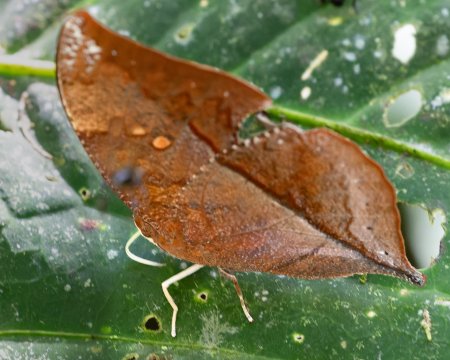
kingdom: Animalia
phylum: Arthropoda
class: Insecta
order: Lepidoptera
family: Nymphalidae
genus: Zaretis
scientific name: Zaretis itys
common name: Seasonal Leafwing
